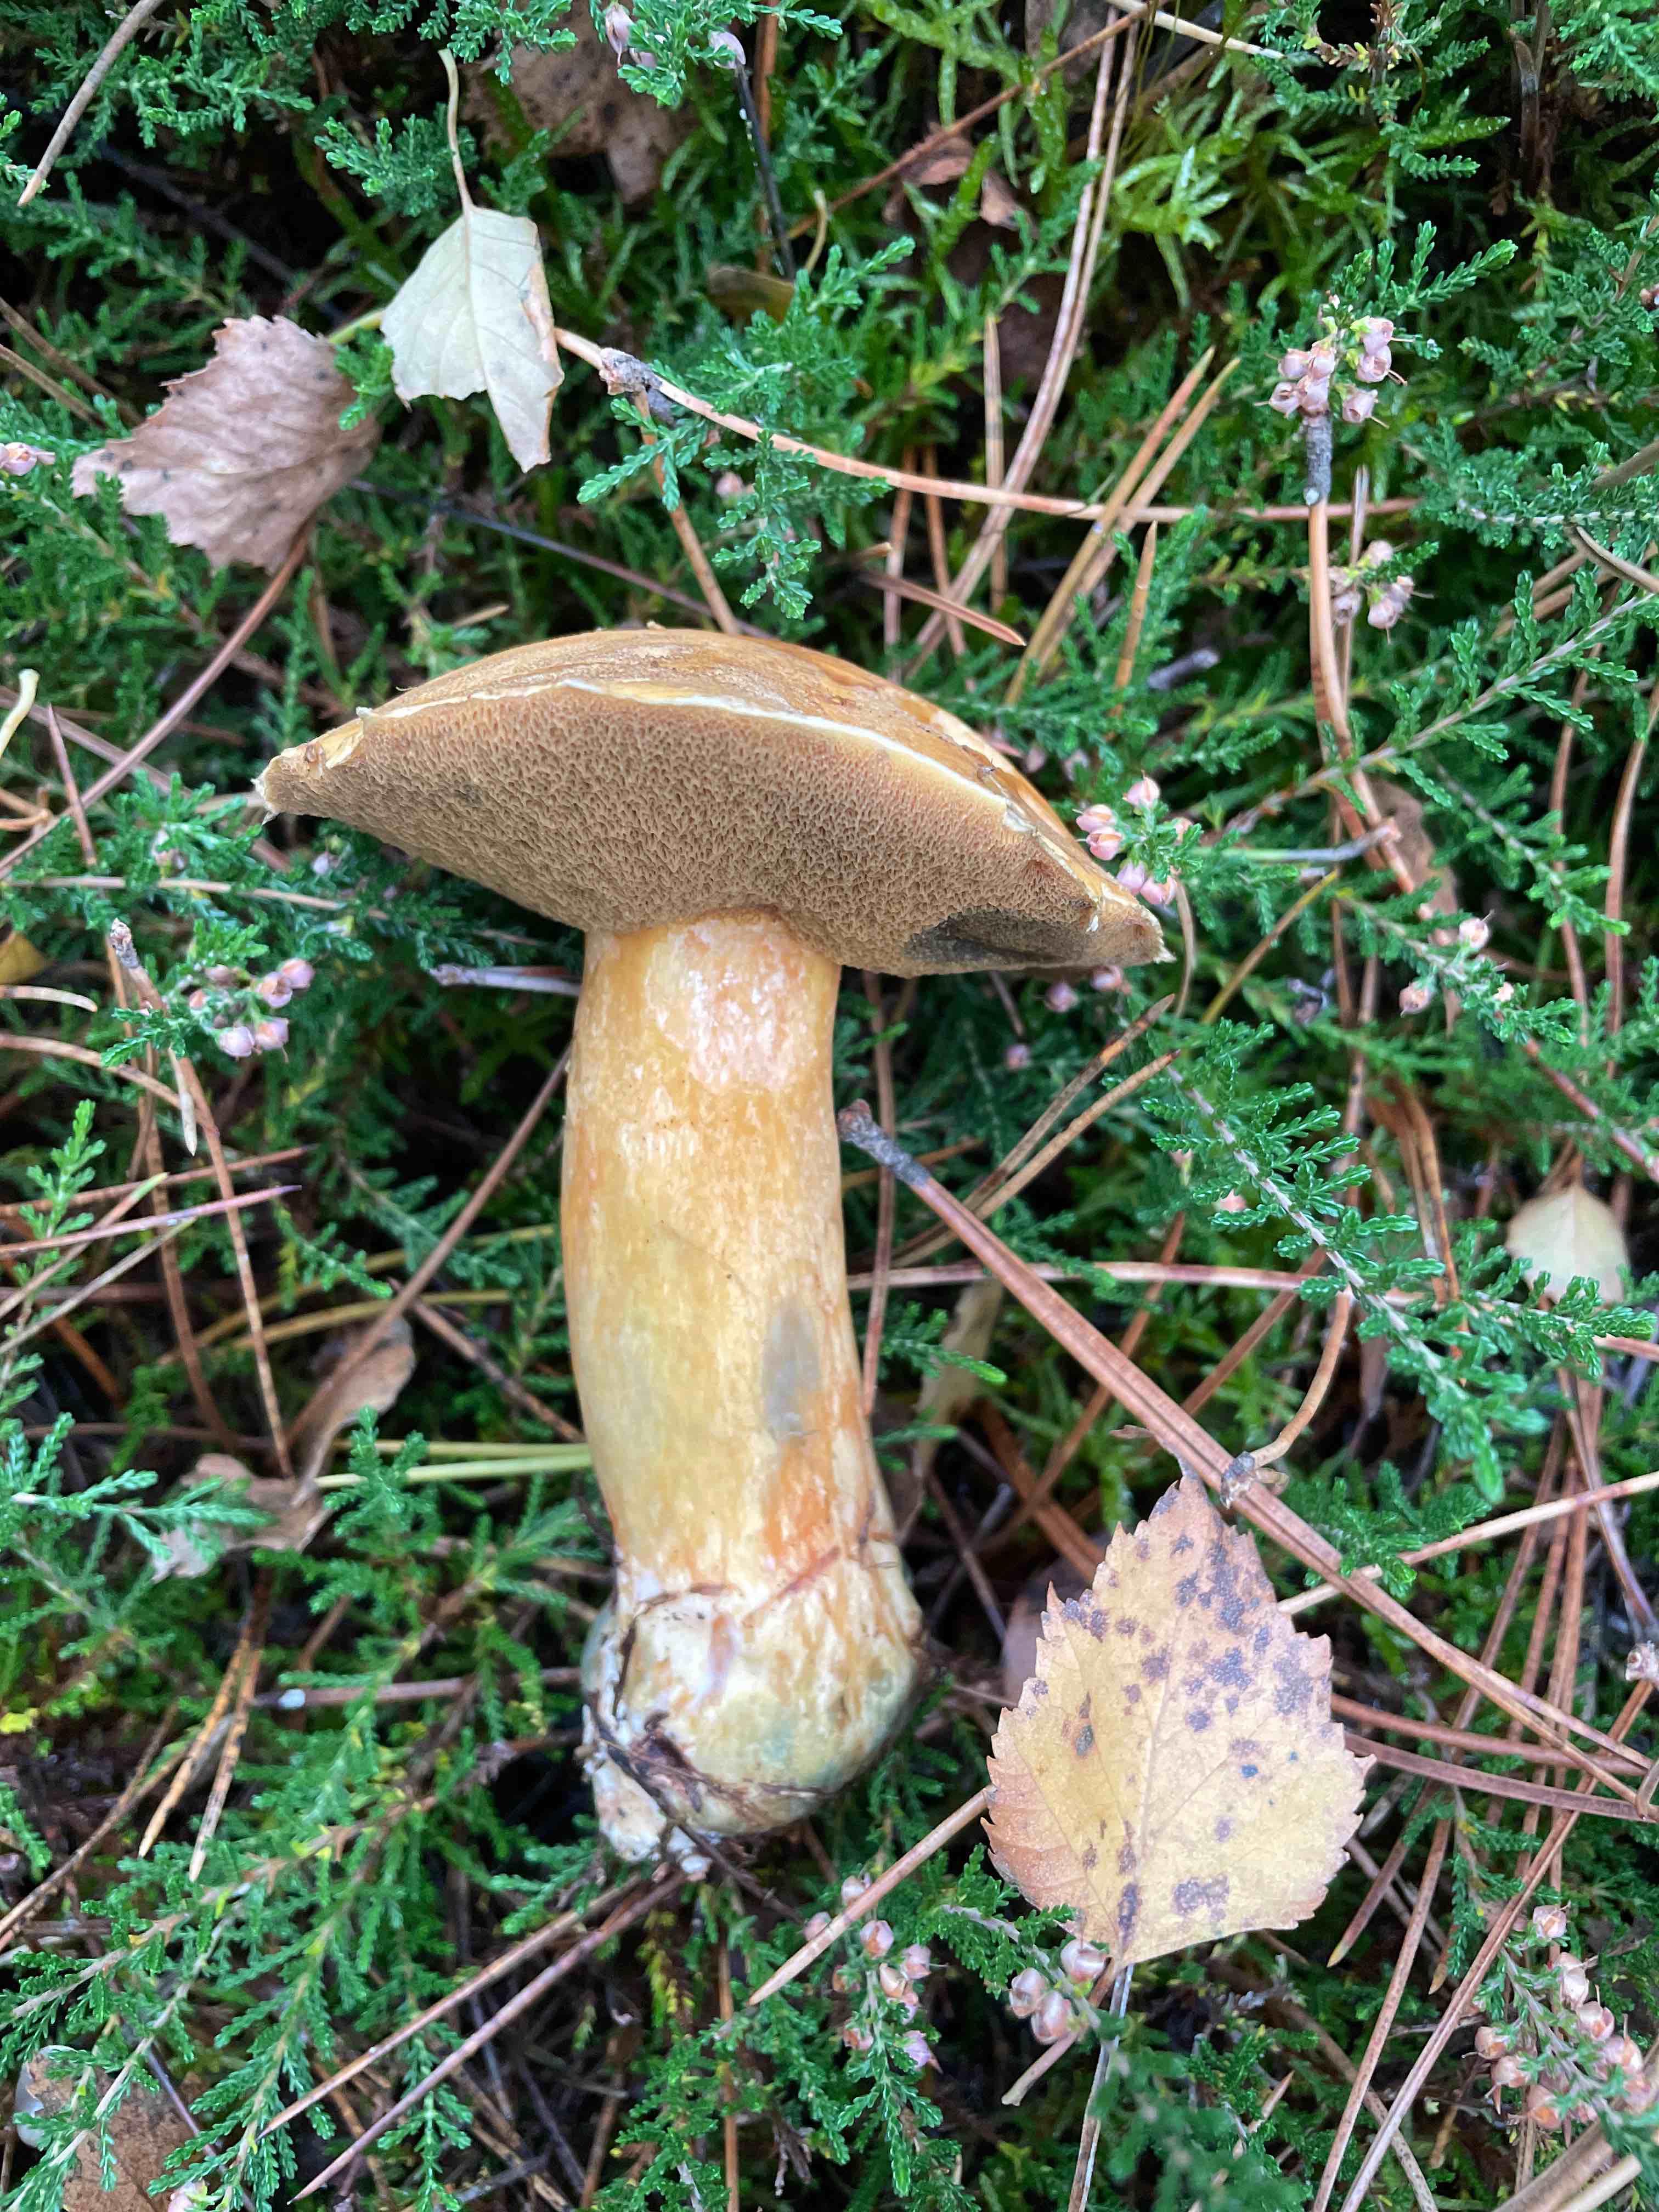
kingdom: Fungi
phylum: Basidiomycota
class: Agaricomycetes
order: Boletales
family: Suillaceae
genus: Suillus
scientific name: Suillus variegatus
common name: broget slimrørhat
